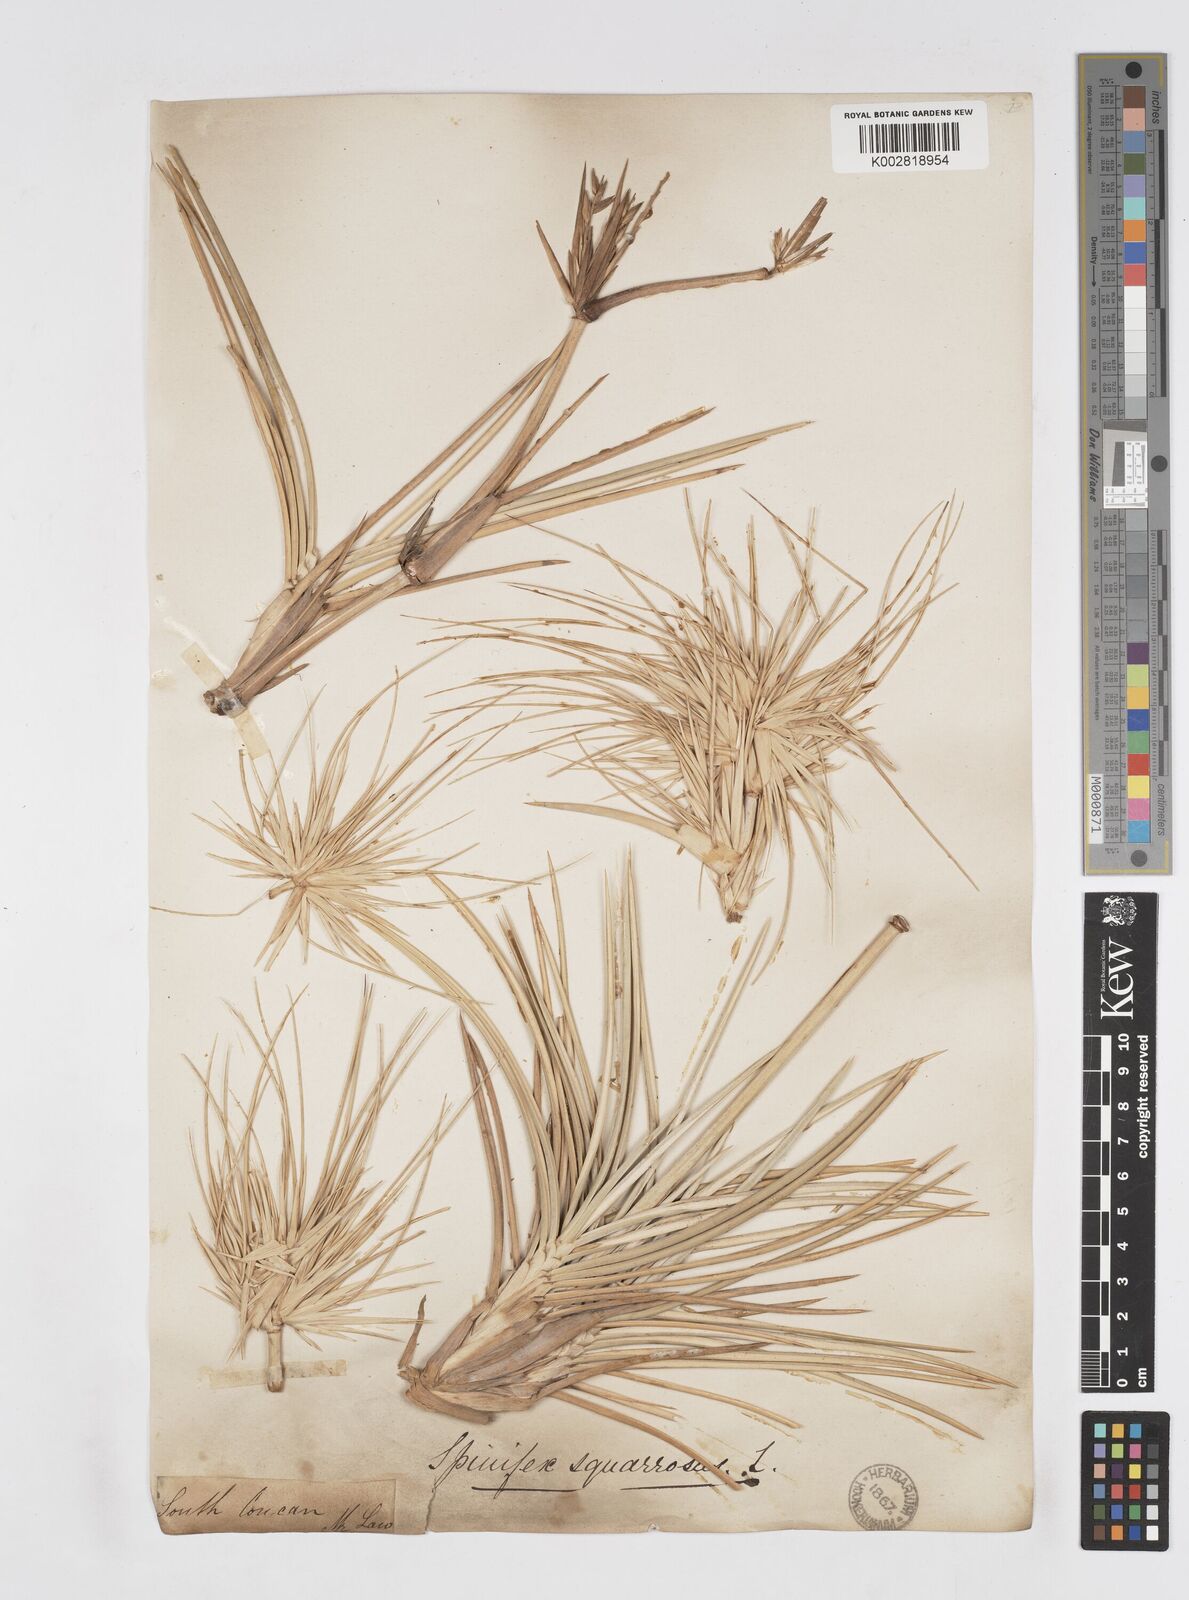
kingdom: Plantae
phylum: Tracheophyta
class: Liliopsida
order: Poales
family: Poaceae
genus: Spinifex
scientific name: Spinifex littoreus
